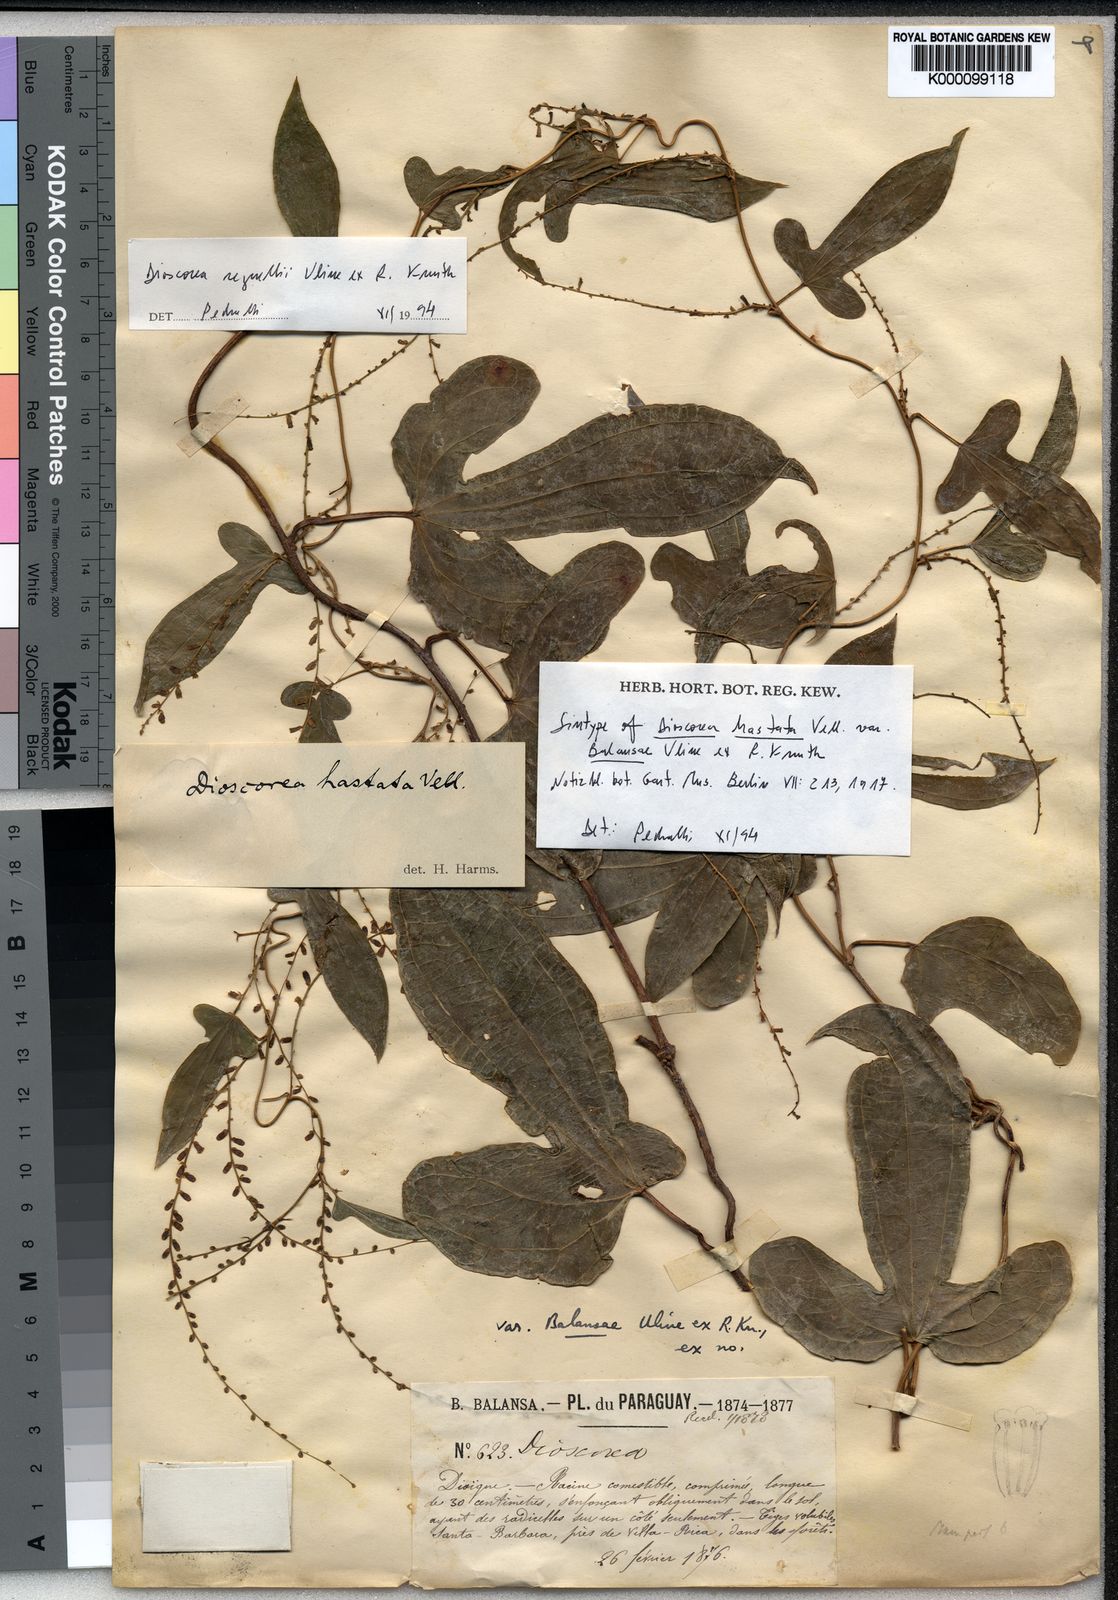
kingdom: Plantae
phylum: Tracheophyta
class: Liliopsida
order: Dioscoreales
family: Dioscoreaceae
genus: Dioscorea
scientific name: Dioscorea hassleriana
